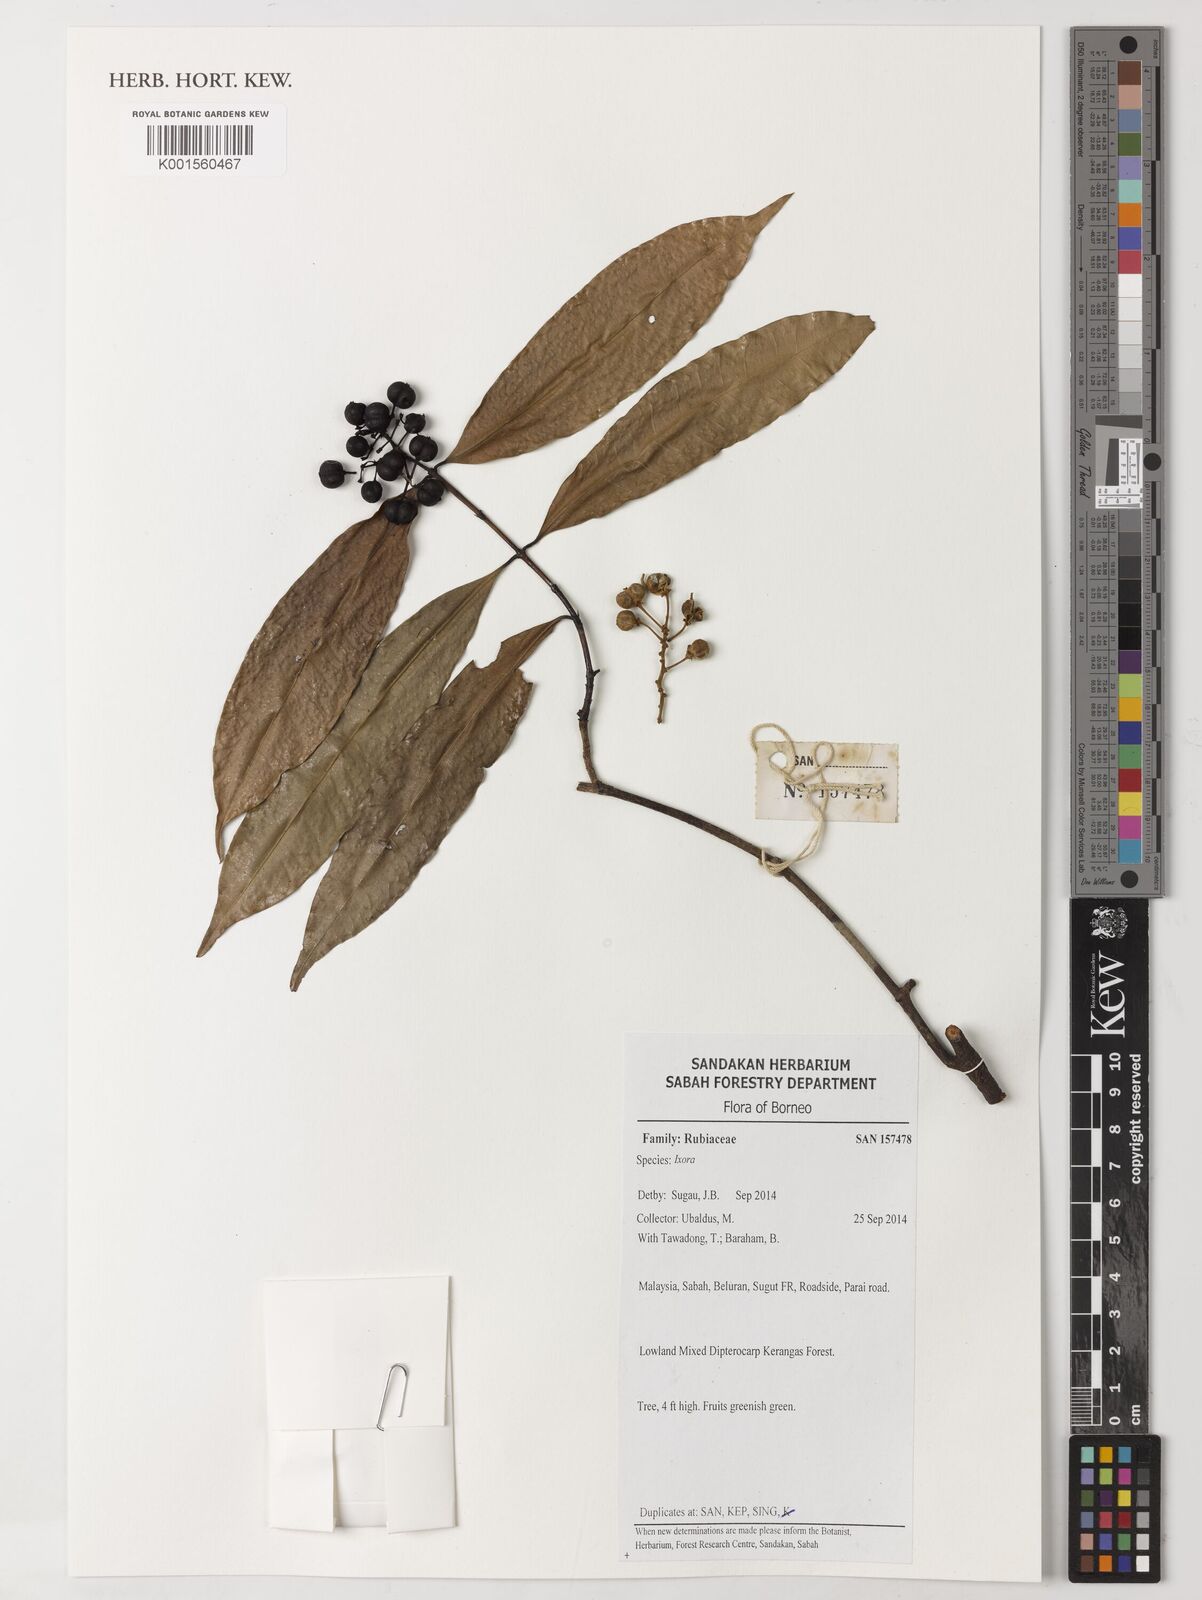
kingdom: Plantae
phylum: Tracheophyta
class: Magnoliopsida
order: Gentianales
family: Rubiaceae
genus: Ixora
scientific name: Ixora
